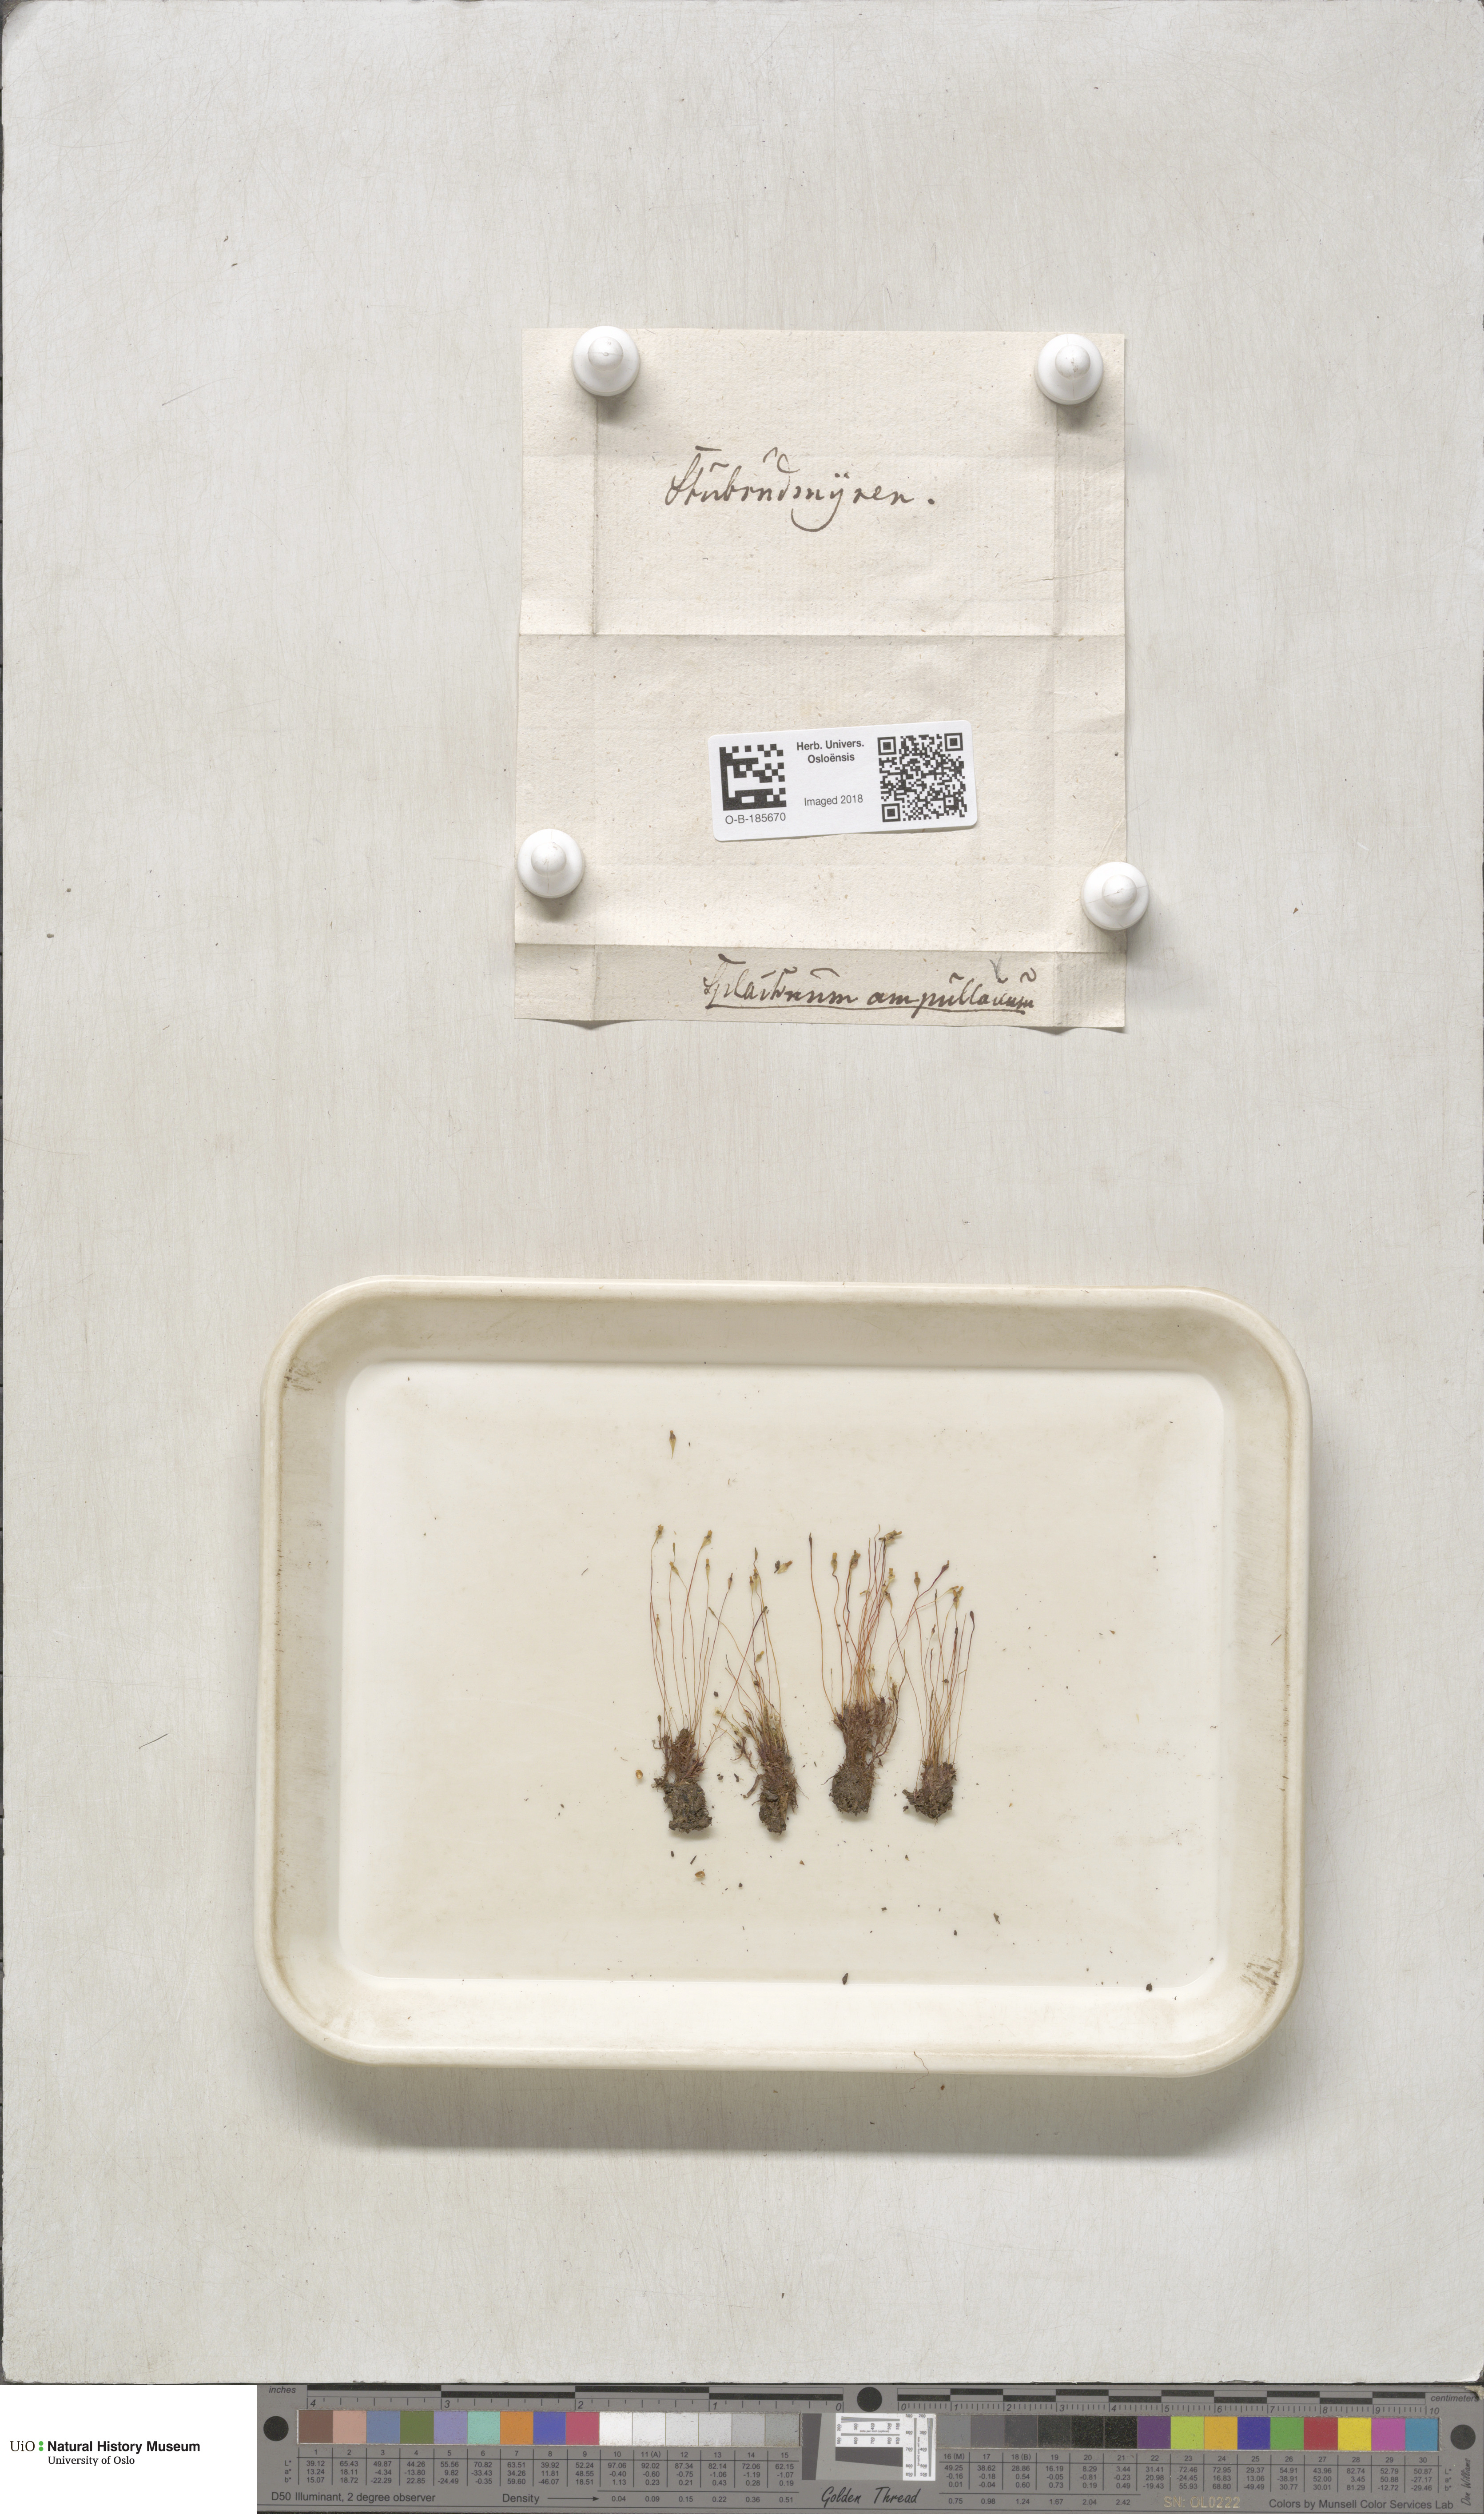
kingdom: Plantae
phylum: Bryophyta
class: Bryopsida
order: Splachnales
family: Splachnaceae
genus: Splachnum
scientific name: Splachnum ampullaceum
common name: Cruet dung moss
